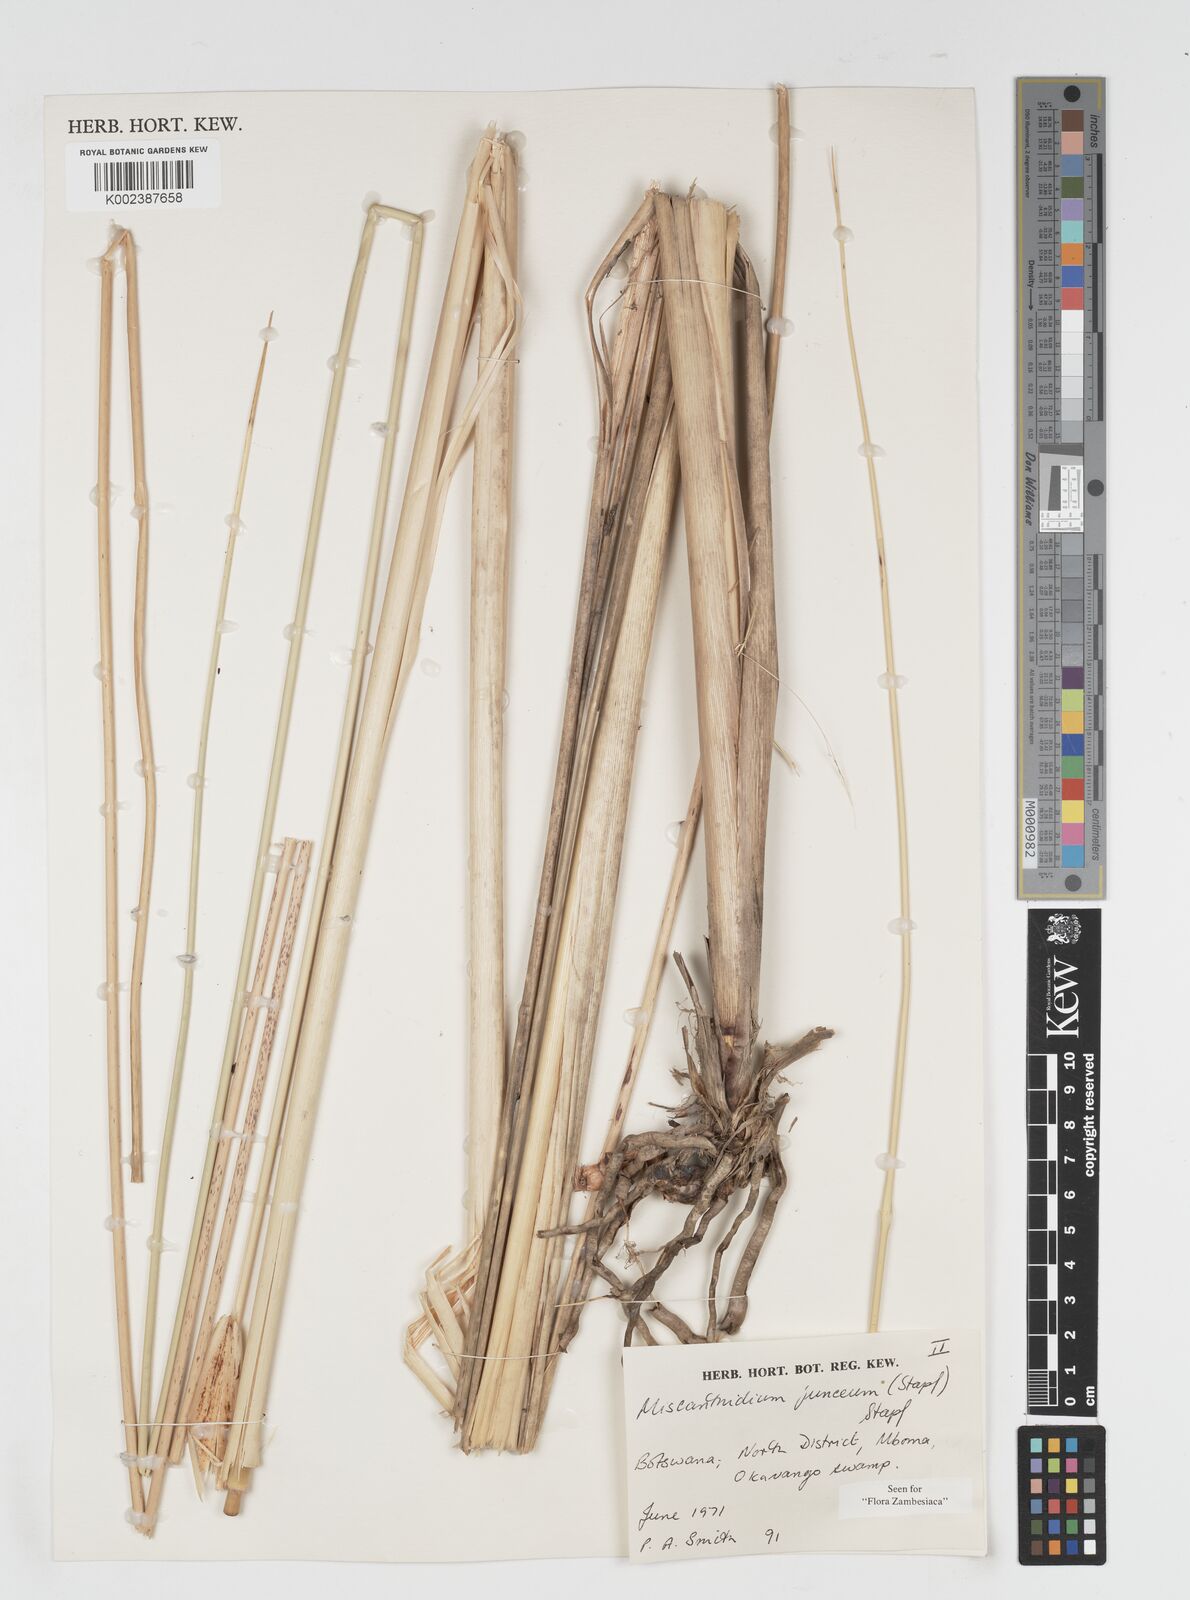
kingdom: Plantae
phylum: Tracheophyta
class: Liliopsida
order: Poales
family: Poaceae
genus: Miscanthidium
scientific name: Miscanthidium junceum
